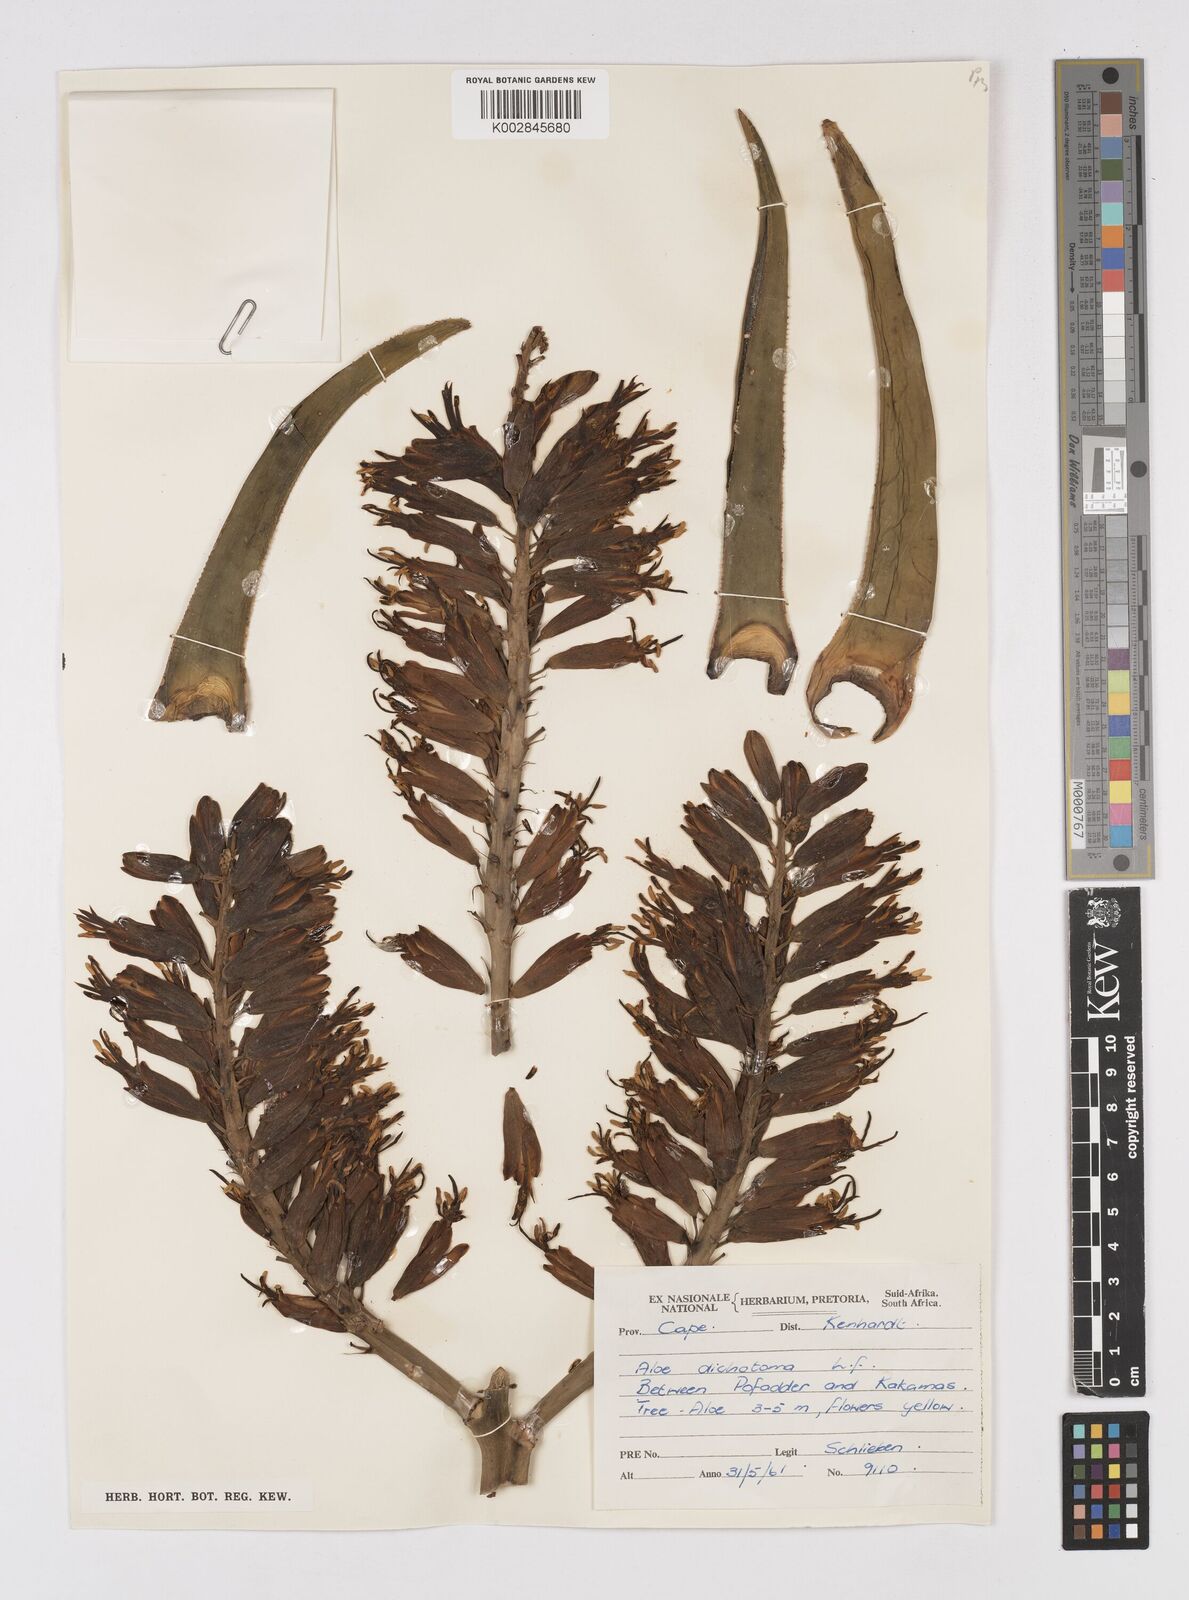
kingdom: Plantae
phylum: Tracheophyta
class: Liliopsida
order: Asparagales
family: Asphodelaceae
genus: Aloidendron
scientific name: Aloidendron dichotomum
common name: Quiver tree
